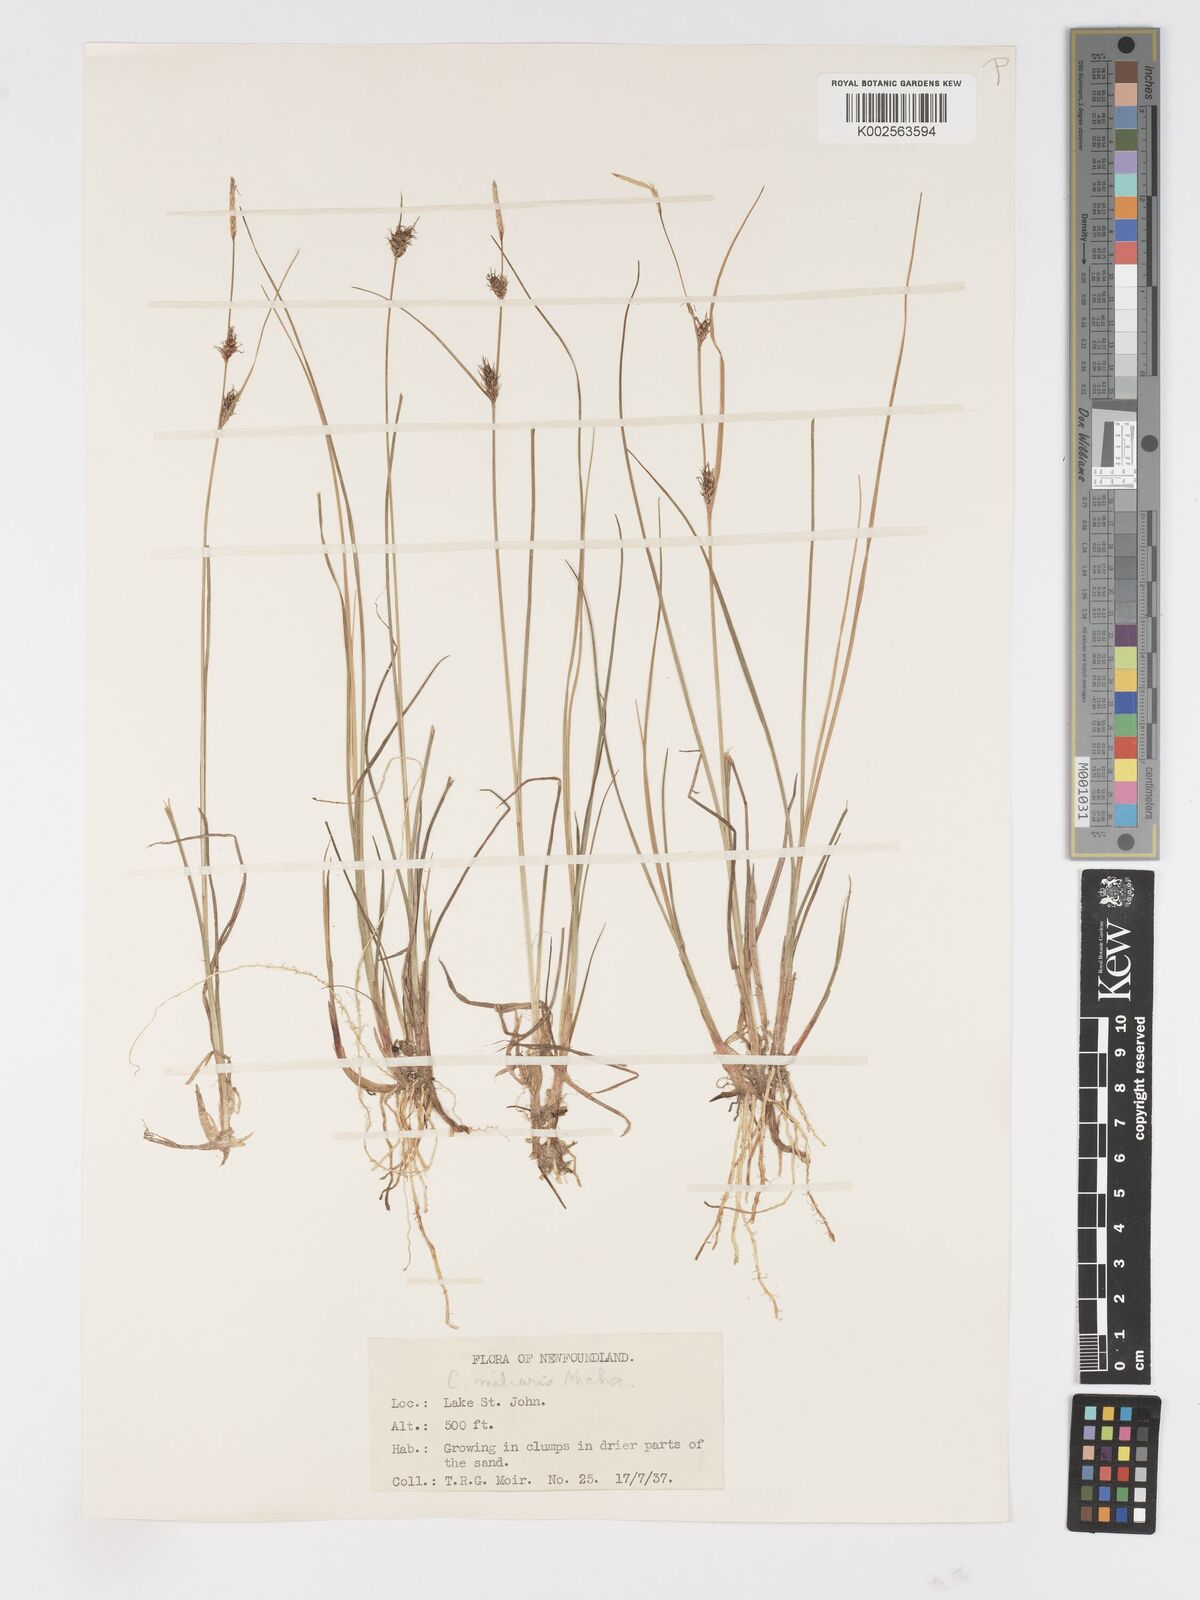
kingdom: Plantae
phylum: Tracheophyta
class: Liliopsida
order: Poales
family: Cyperaceae
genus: Carex
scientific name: Carex miliaris
